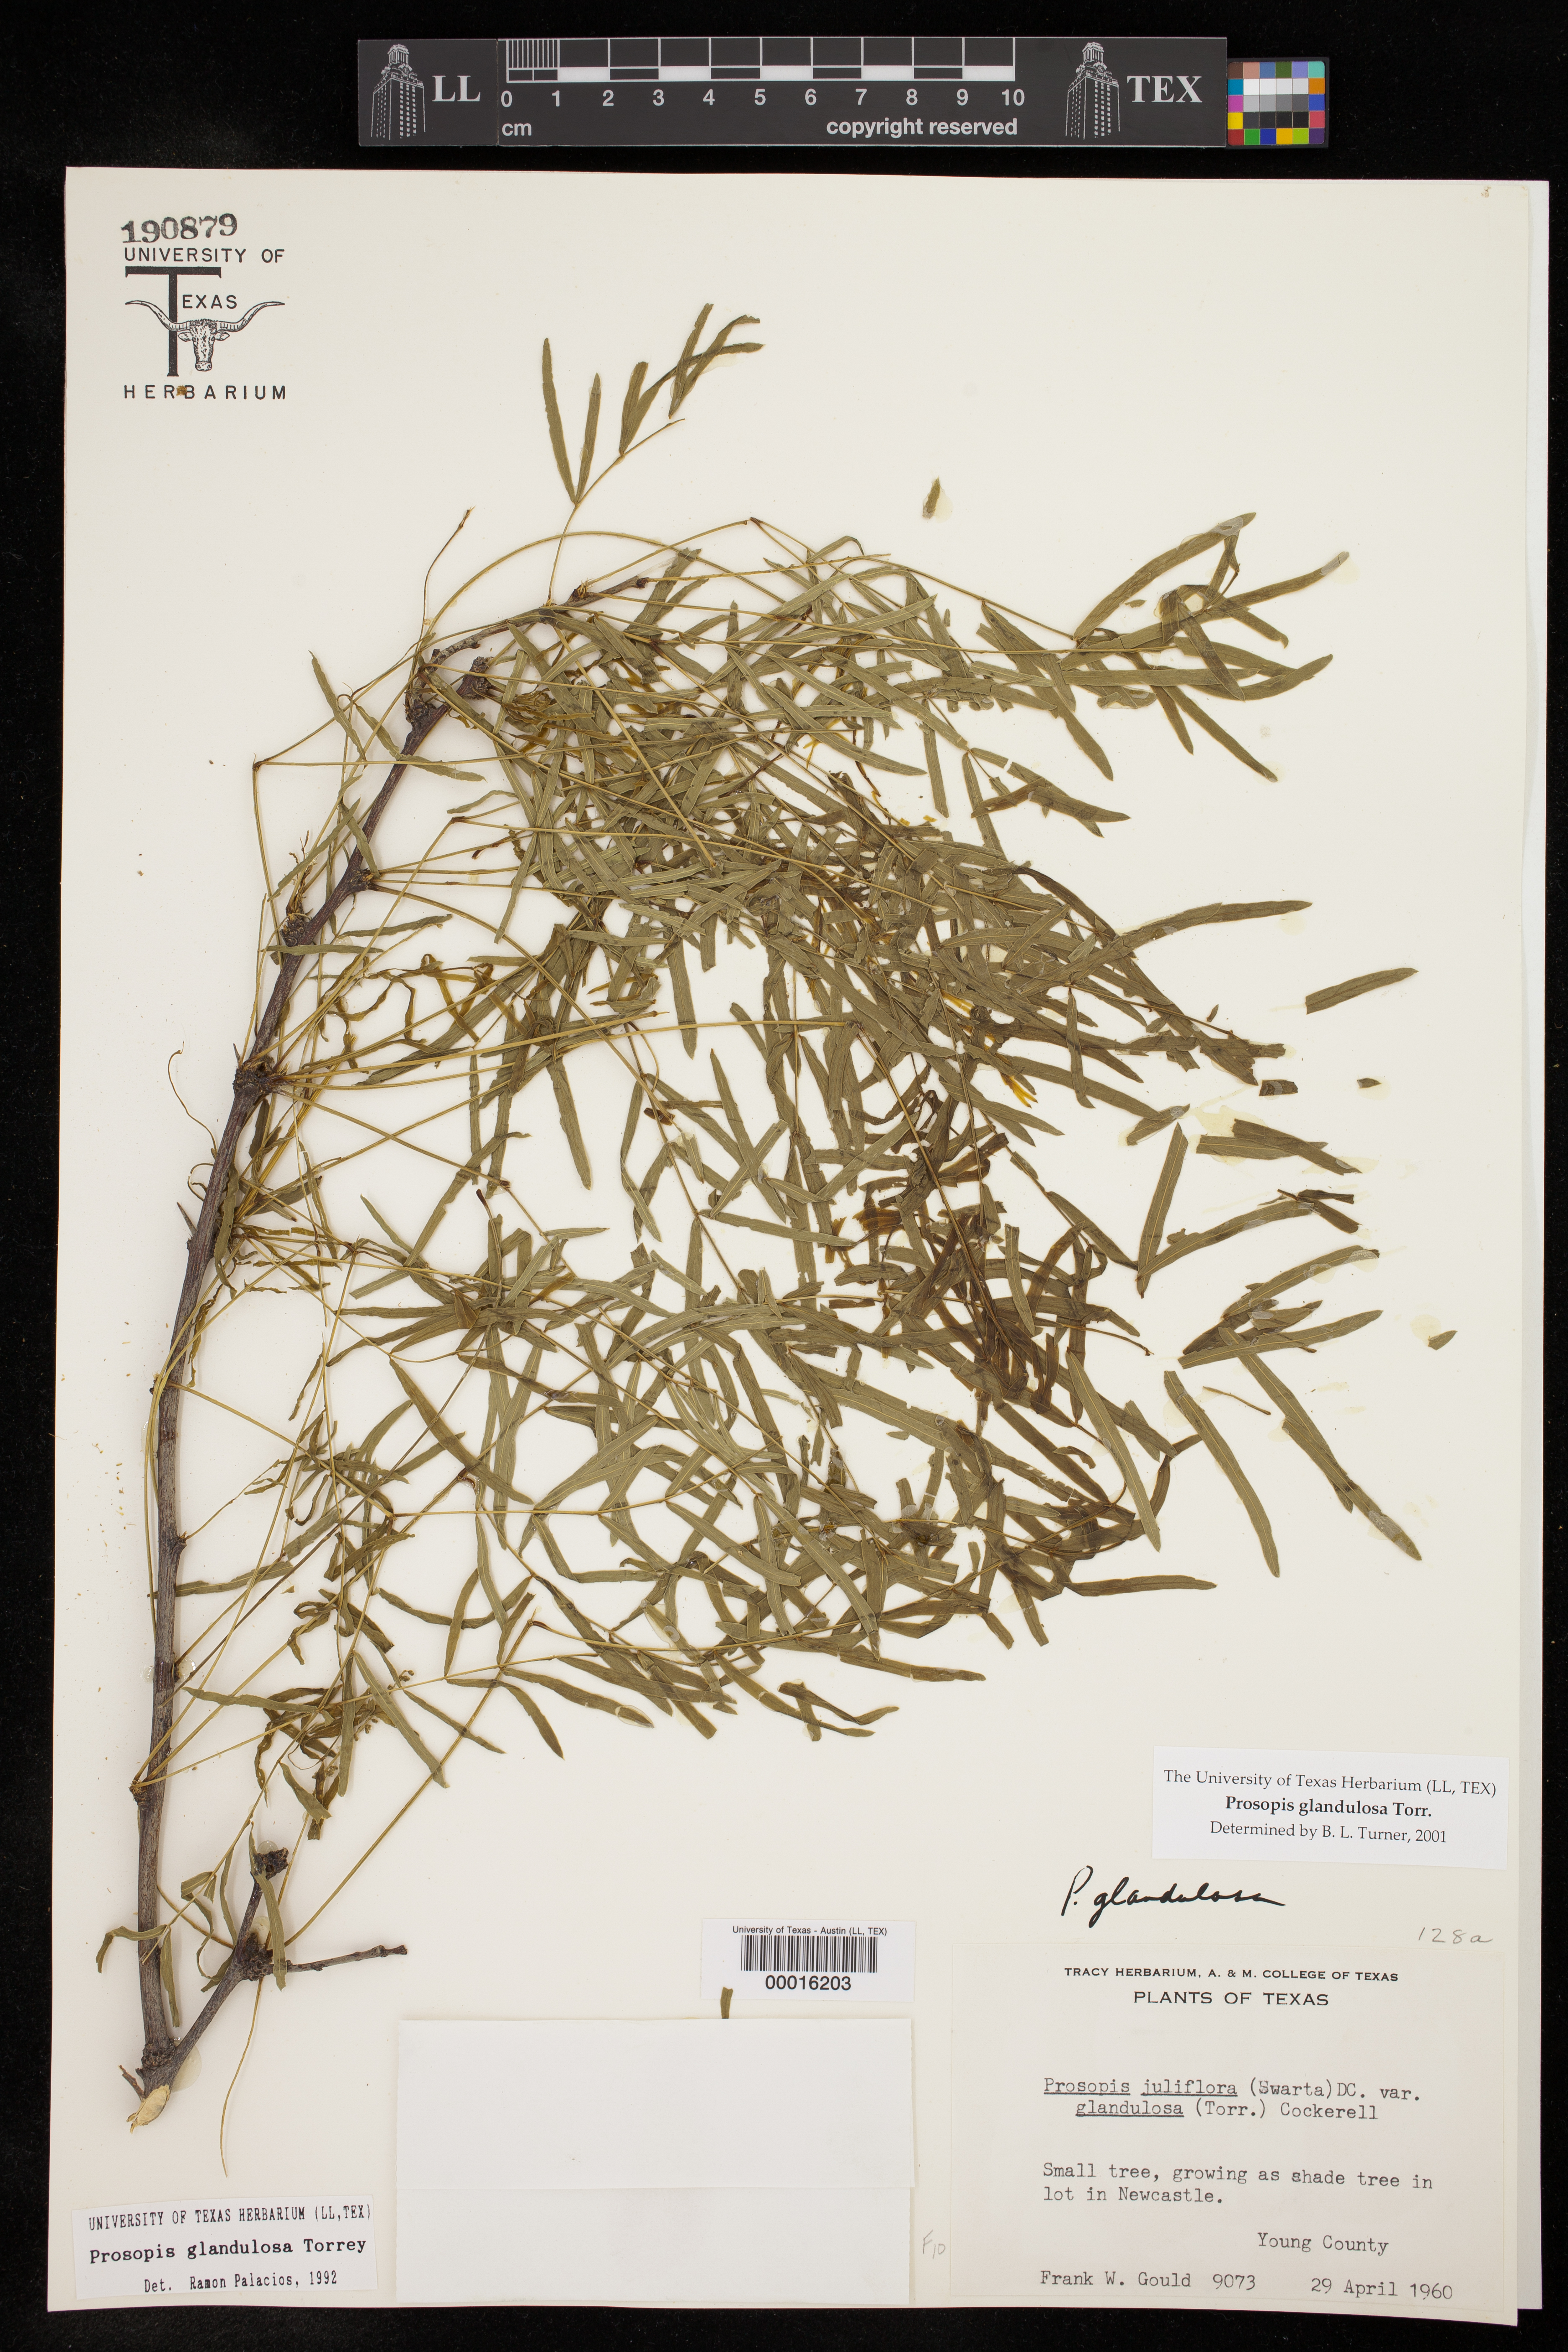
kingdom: Plantae
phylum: Tracheophyta
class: Magnoliopsida
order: Fabales
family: Fabaceae
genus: Prosopis
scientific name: Prosopis glandulosa
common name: Honey mesquite
